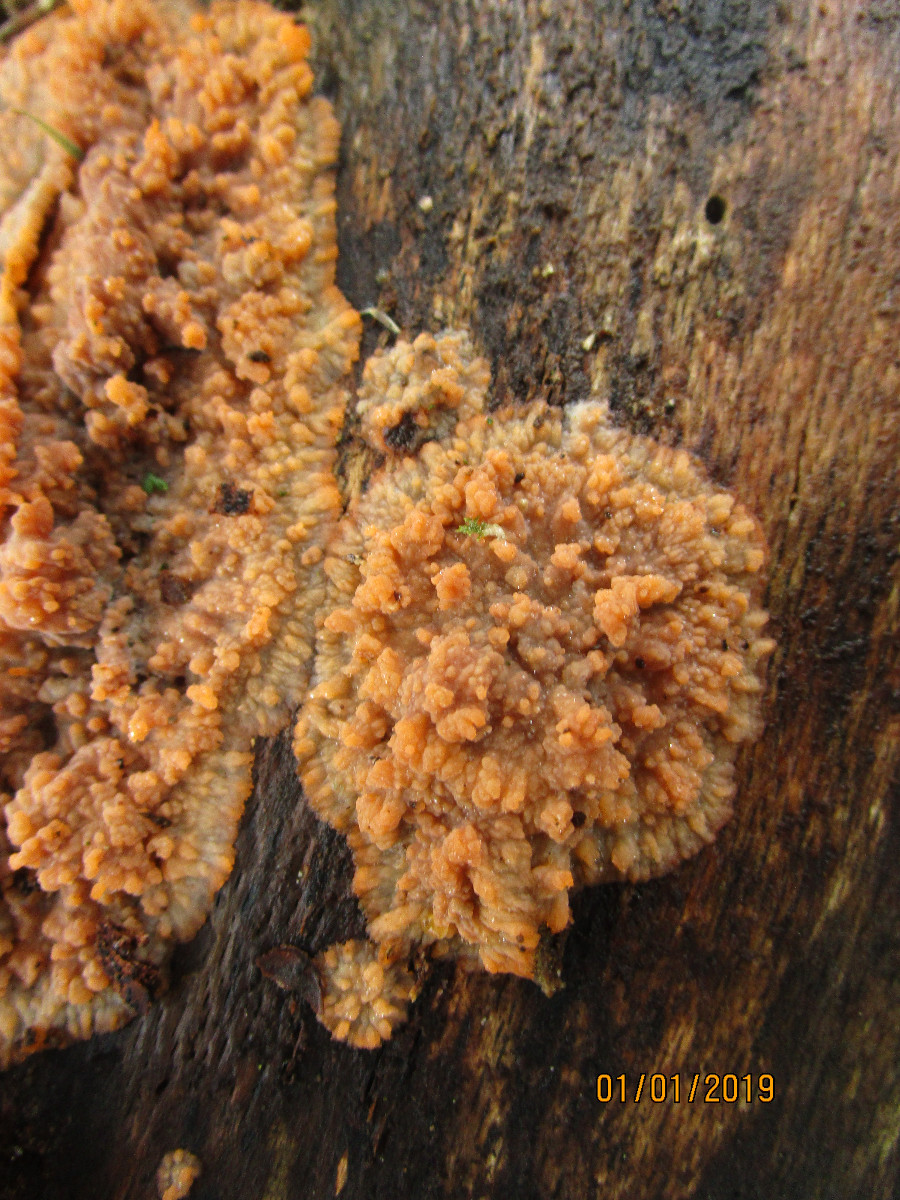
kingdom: Fungi
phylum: Basidiomycota
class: Agaricomycetes
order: Polyporales
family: Meruliaceae
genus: Phlebia
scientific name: Phlebia radiata
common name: stråle-åresvamp
